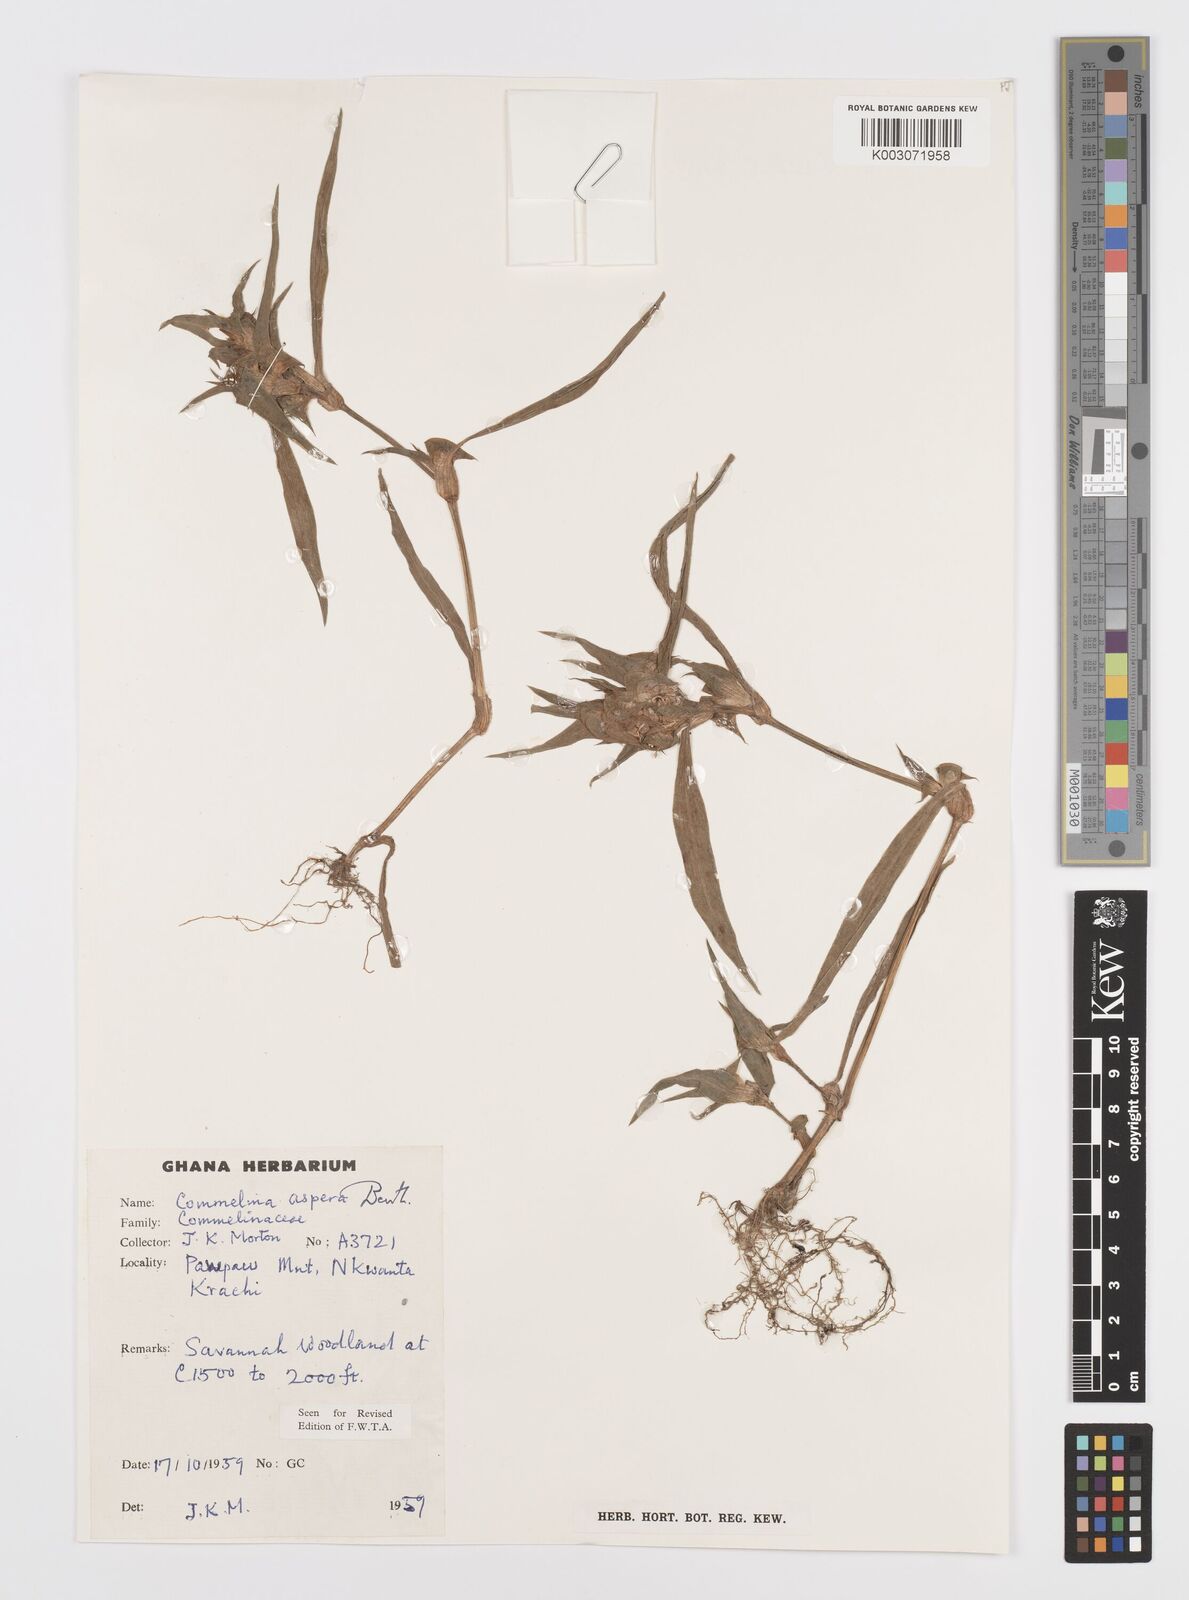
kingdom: Plantae
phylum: Tracheophyta
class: Liliopsida
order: Commelinales
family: Commelinaceae
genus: Commelina
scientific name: Commelina aspera
